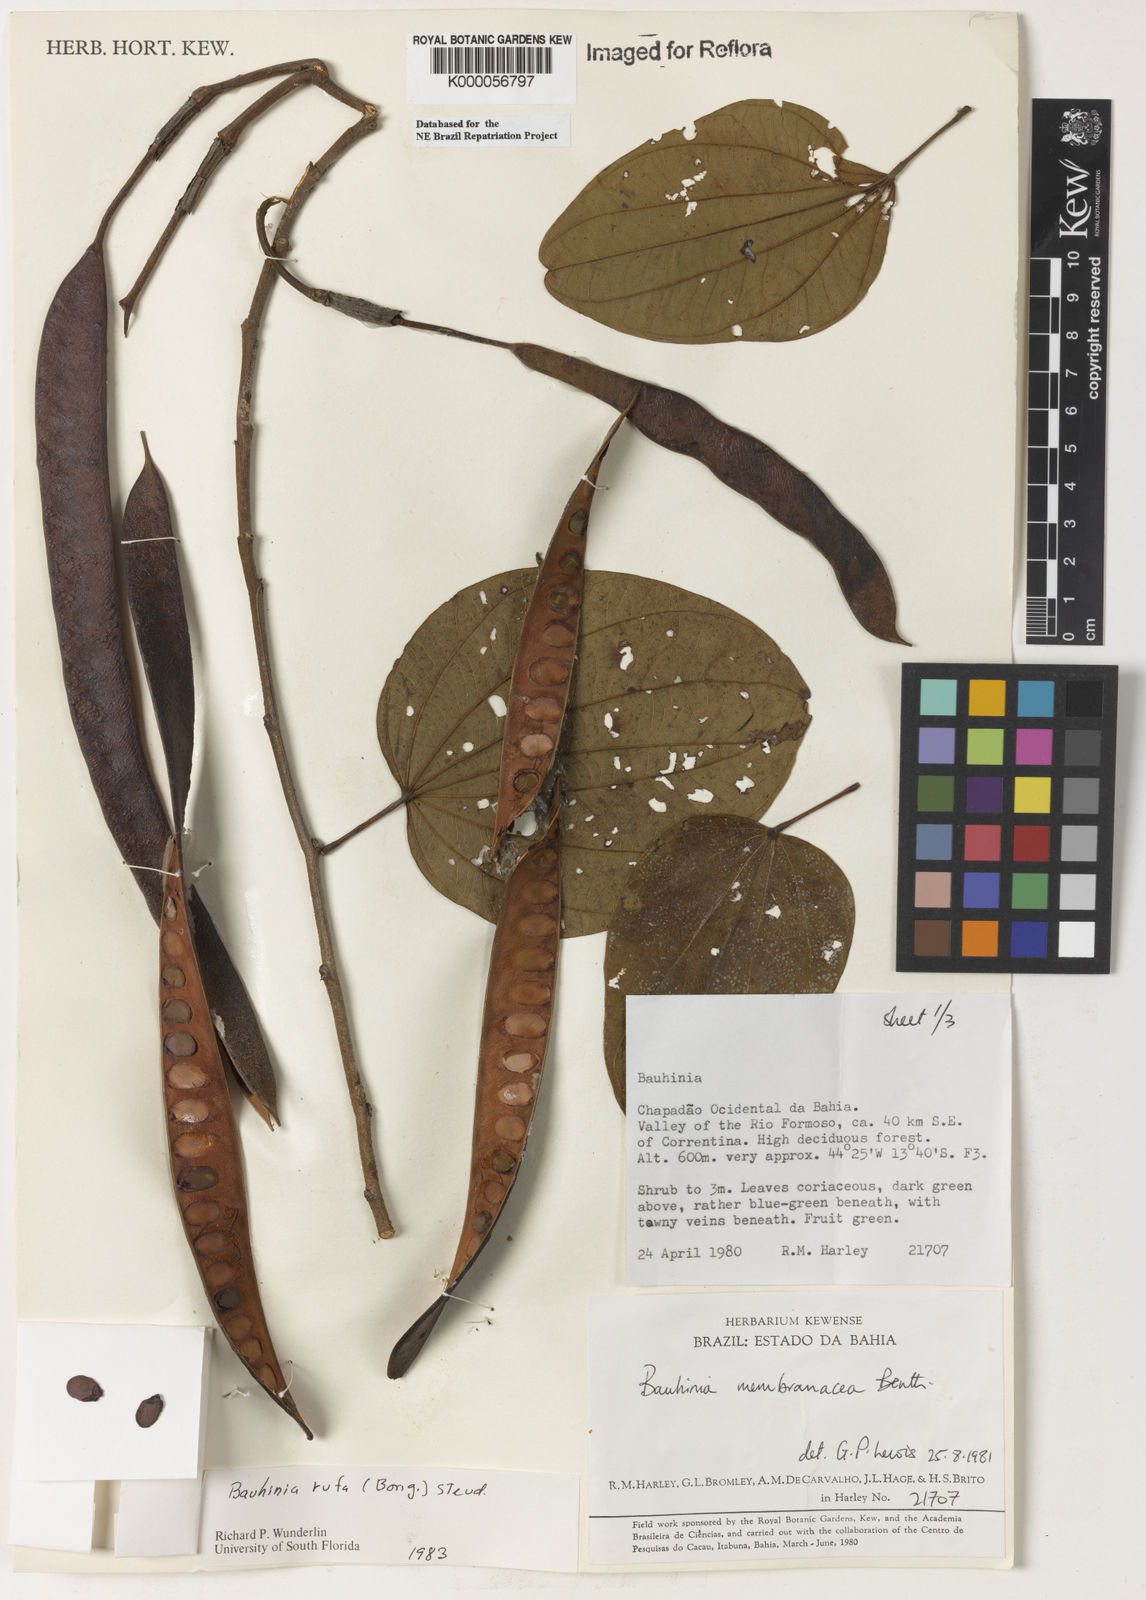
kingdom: Plantae
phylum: Tracheophyta
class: Magnoliopsida
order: Fabales
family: Fabaceae
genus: Bauhinia
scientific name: Bauhinia rufa
